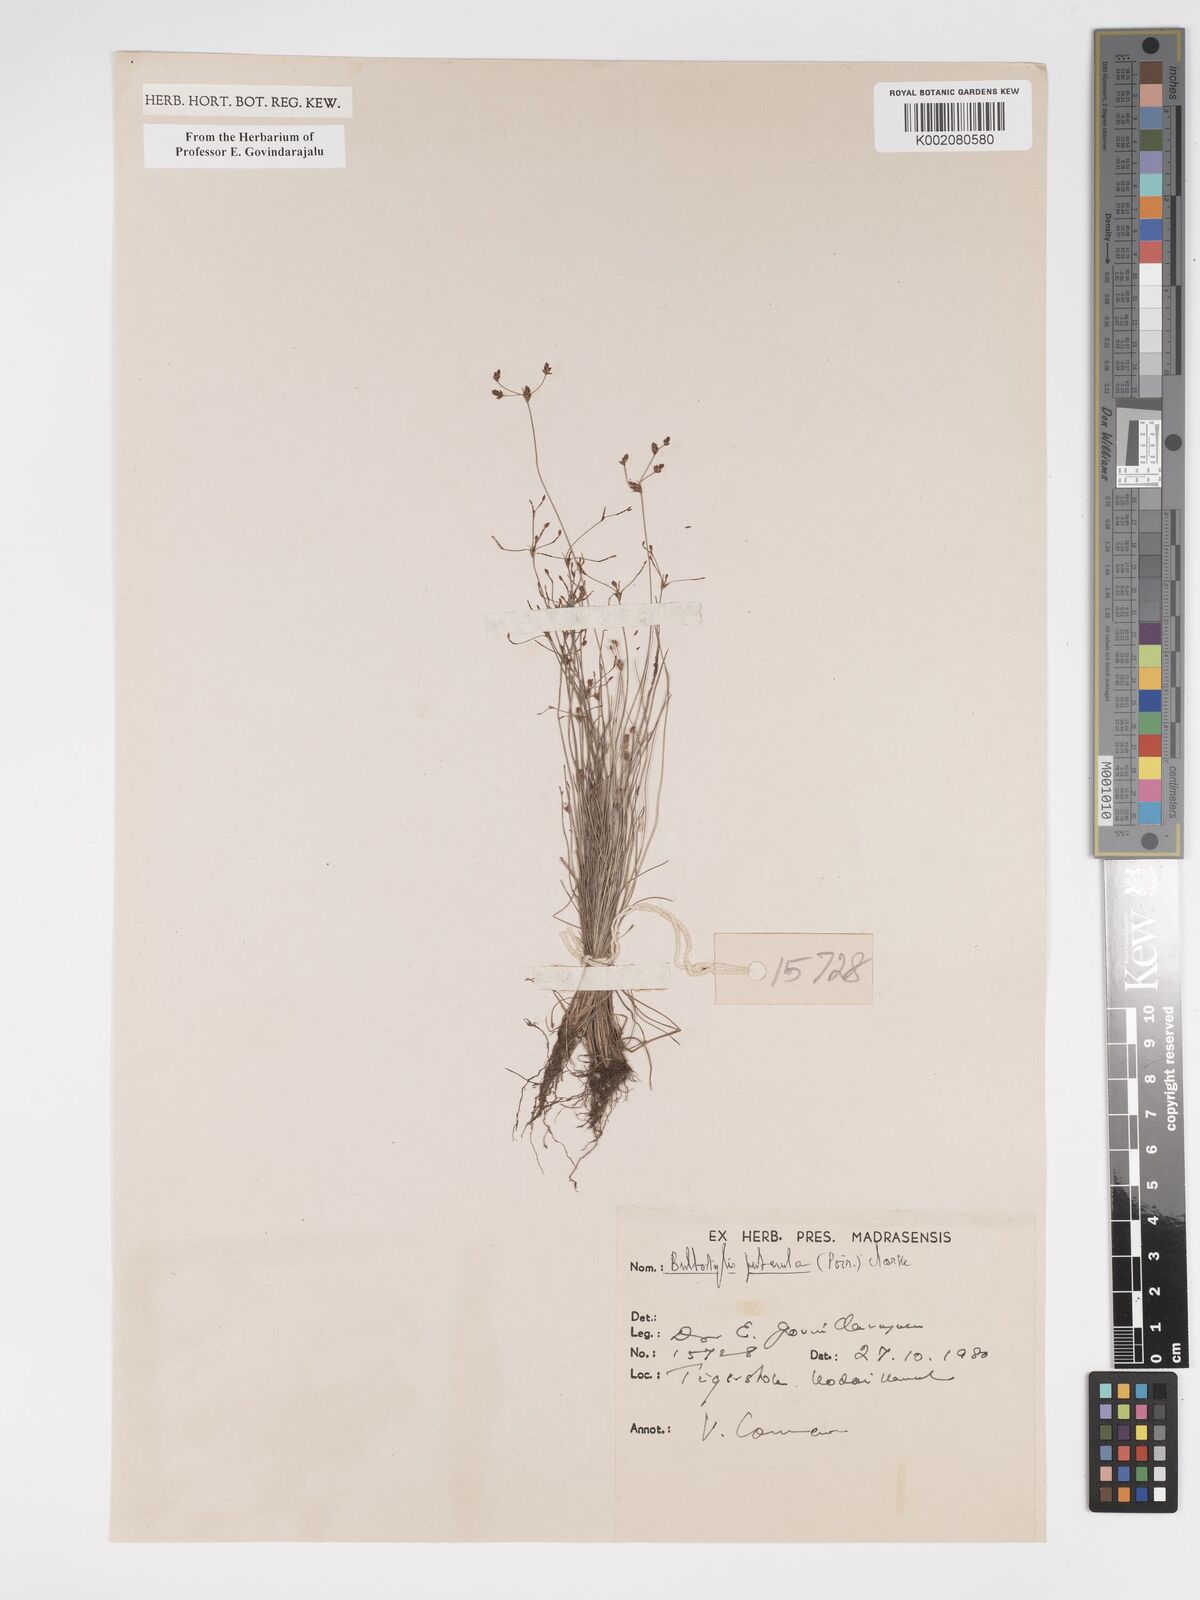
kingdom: Plantae
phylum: Tracheophyta
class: Liliopsida
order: Poales
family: Cyperaceae
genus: Bulbostylis
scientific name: Bulbostylis thouarsii
